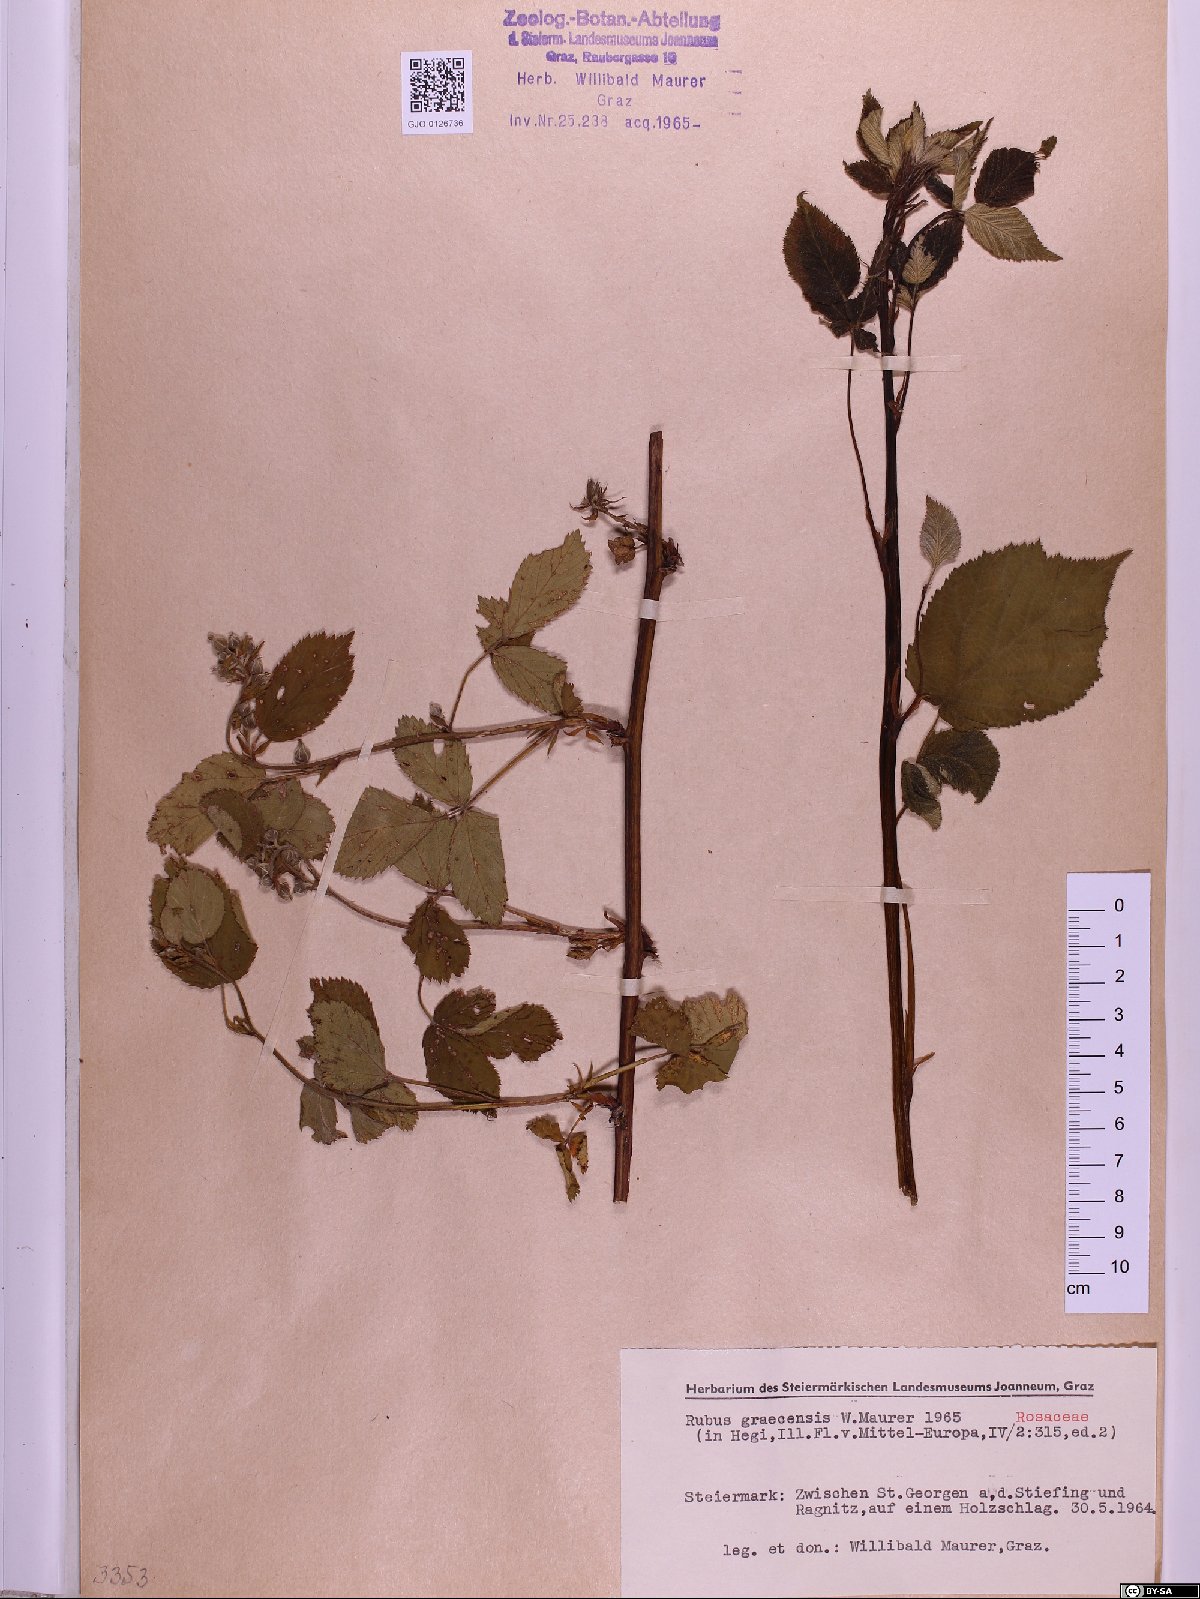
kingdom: Plantae
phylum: Tracheophyta
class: Magnoliopsida
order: Rosales
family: Rosaceae
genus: Rubus
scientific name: Rubus graecensis
